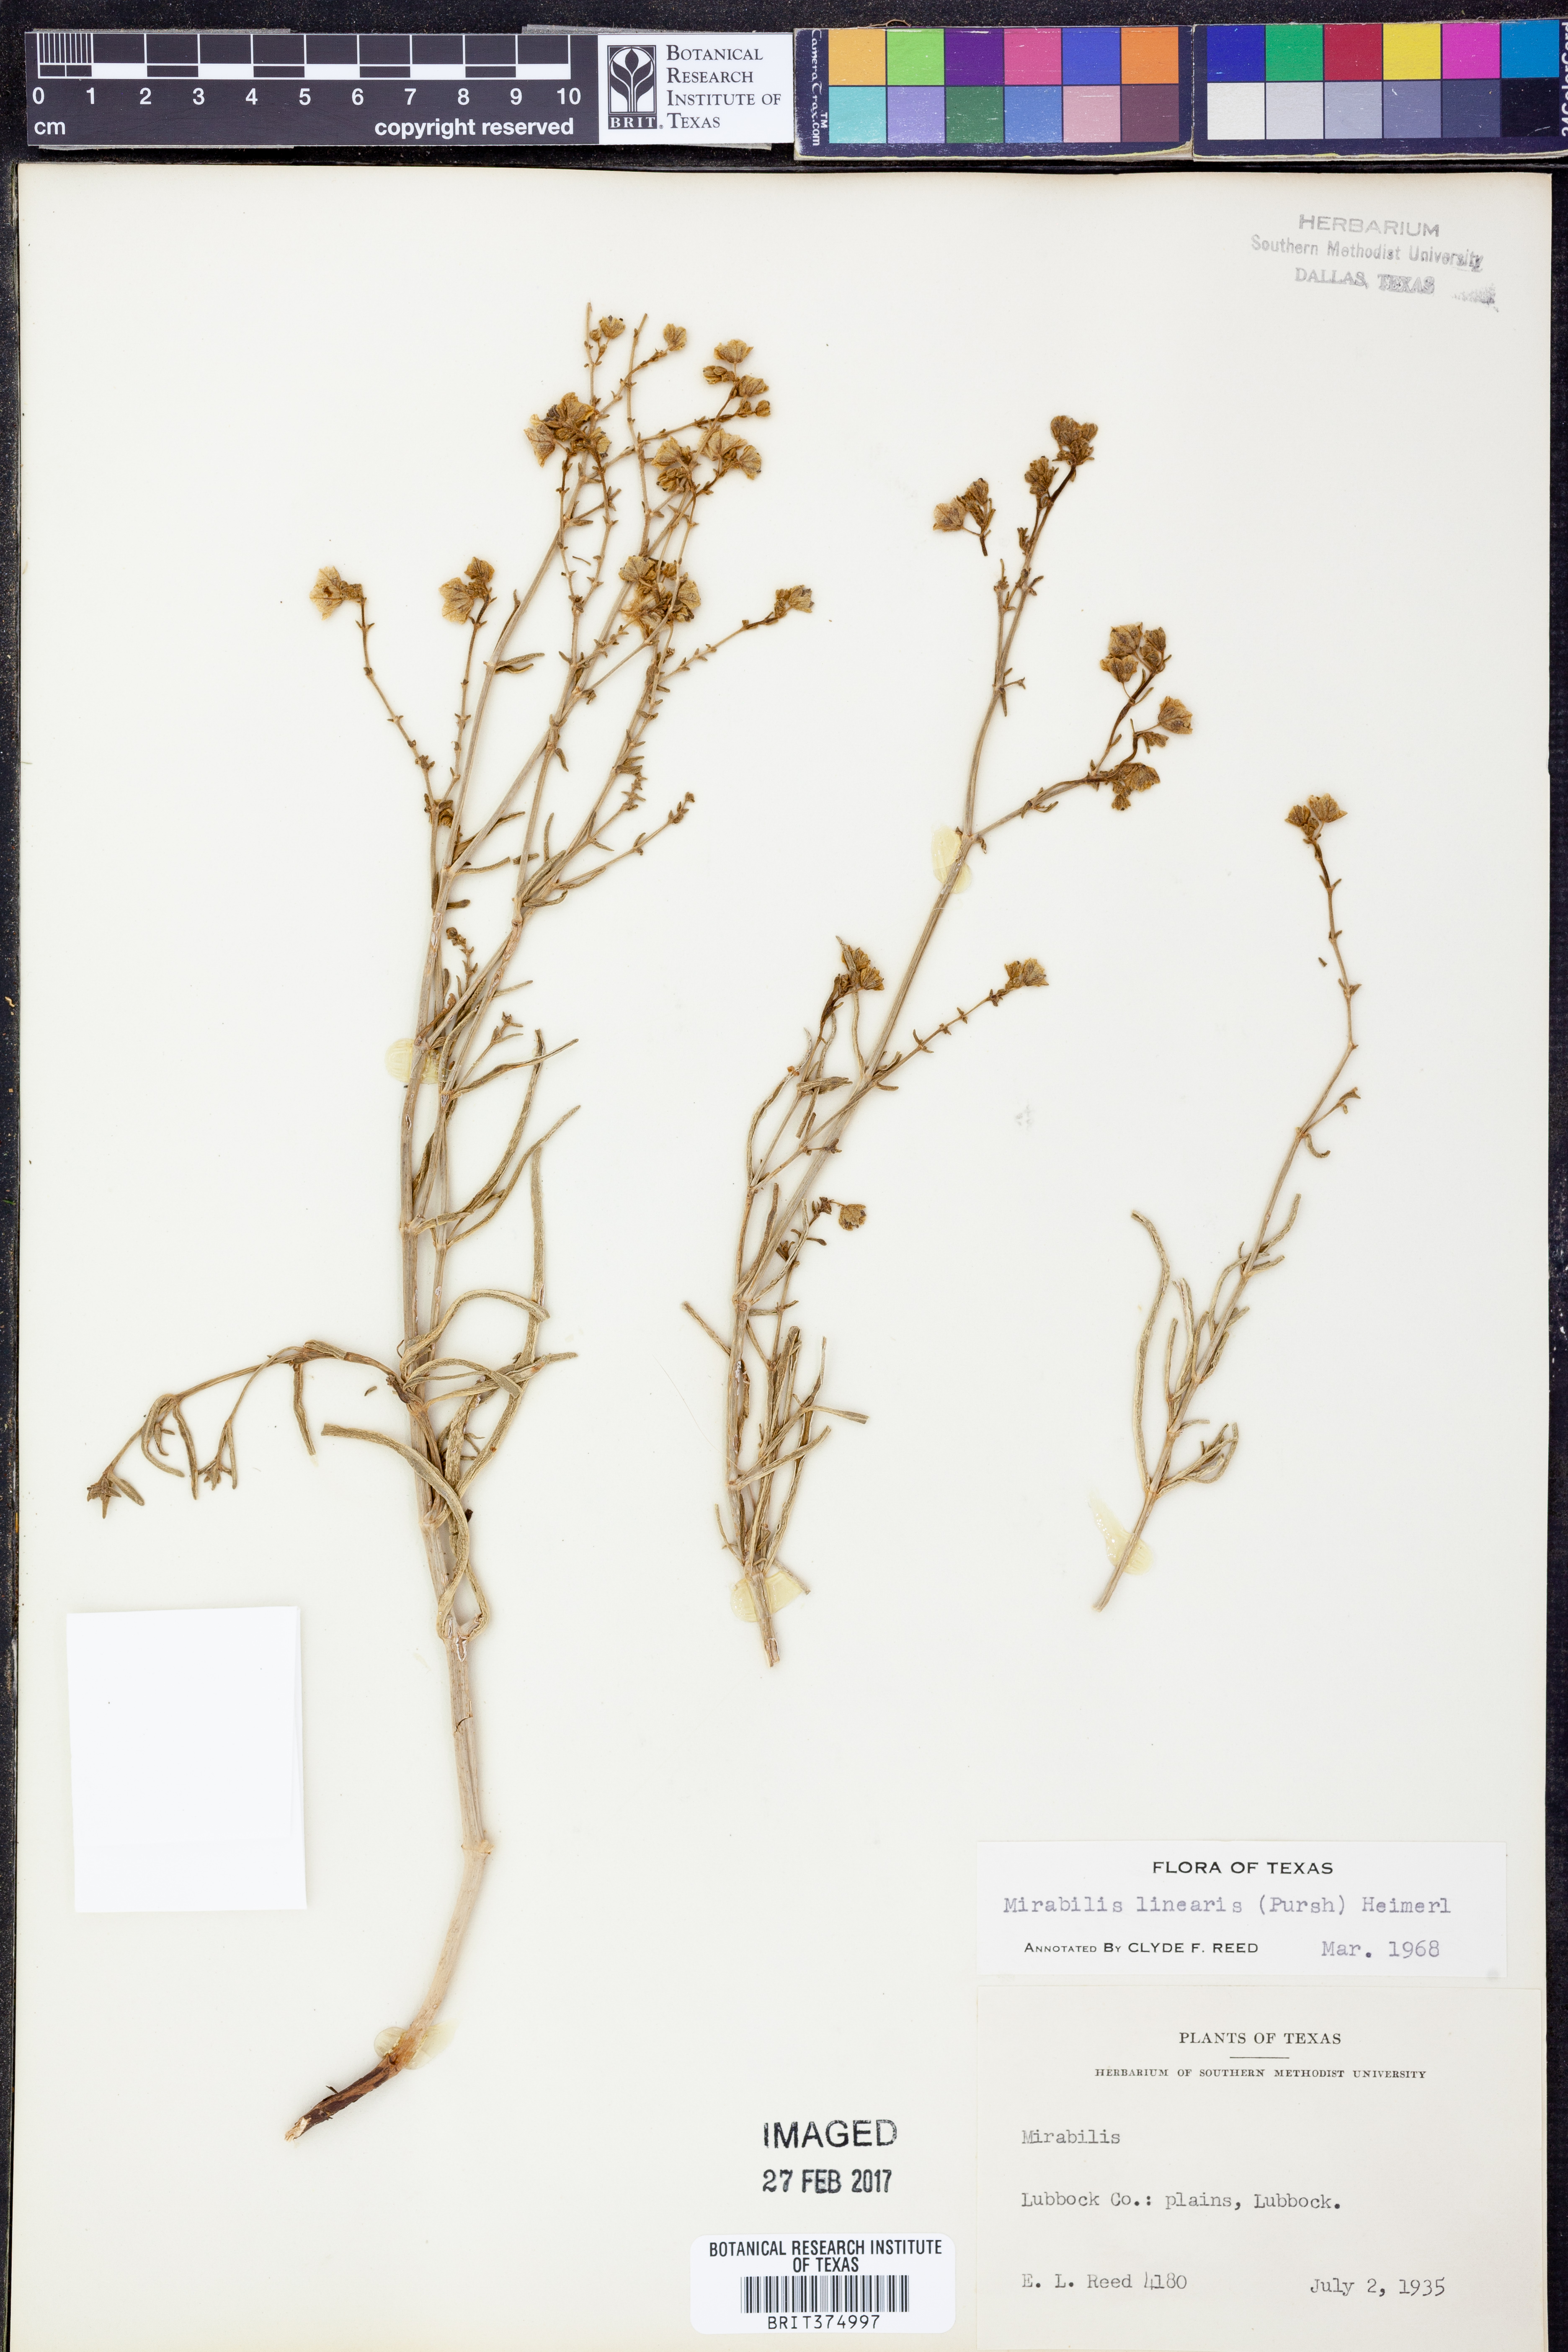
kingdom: Plantae
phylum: Tracheophyta
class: Magnoliopsida
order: Caryophyllales
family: Nyctaginaceae
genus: Mirabilis
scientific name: Mirabilis linearis
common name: Linear-leaved four-o'clock
